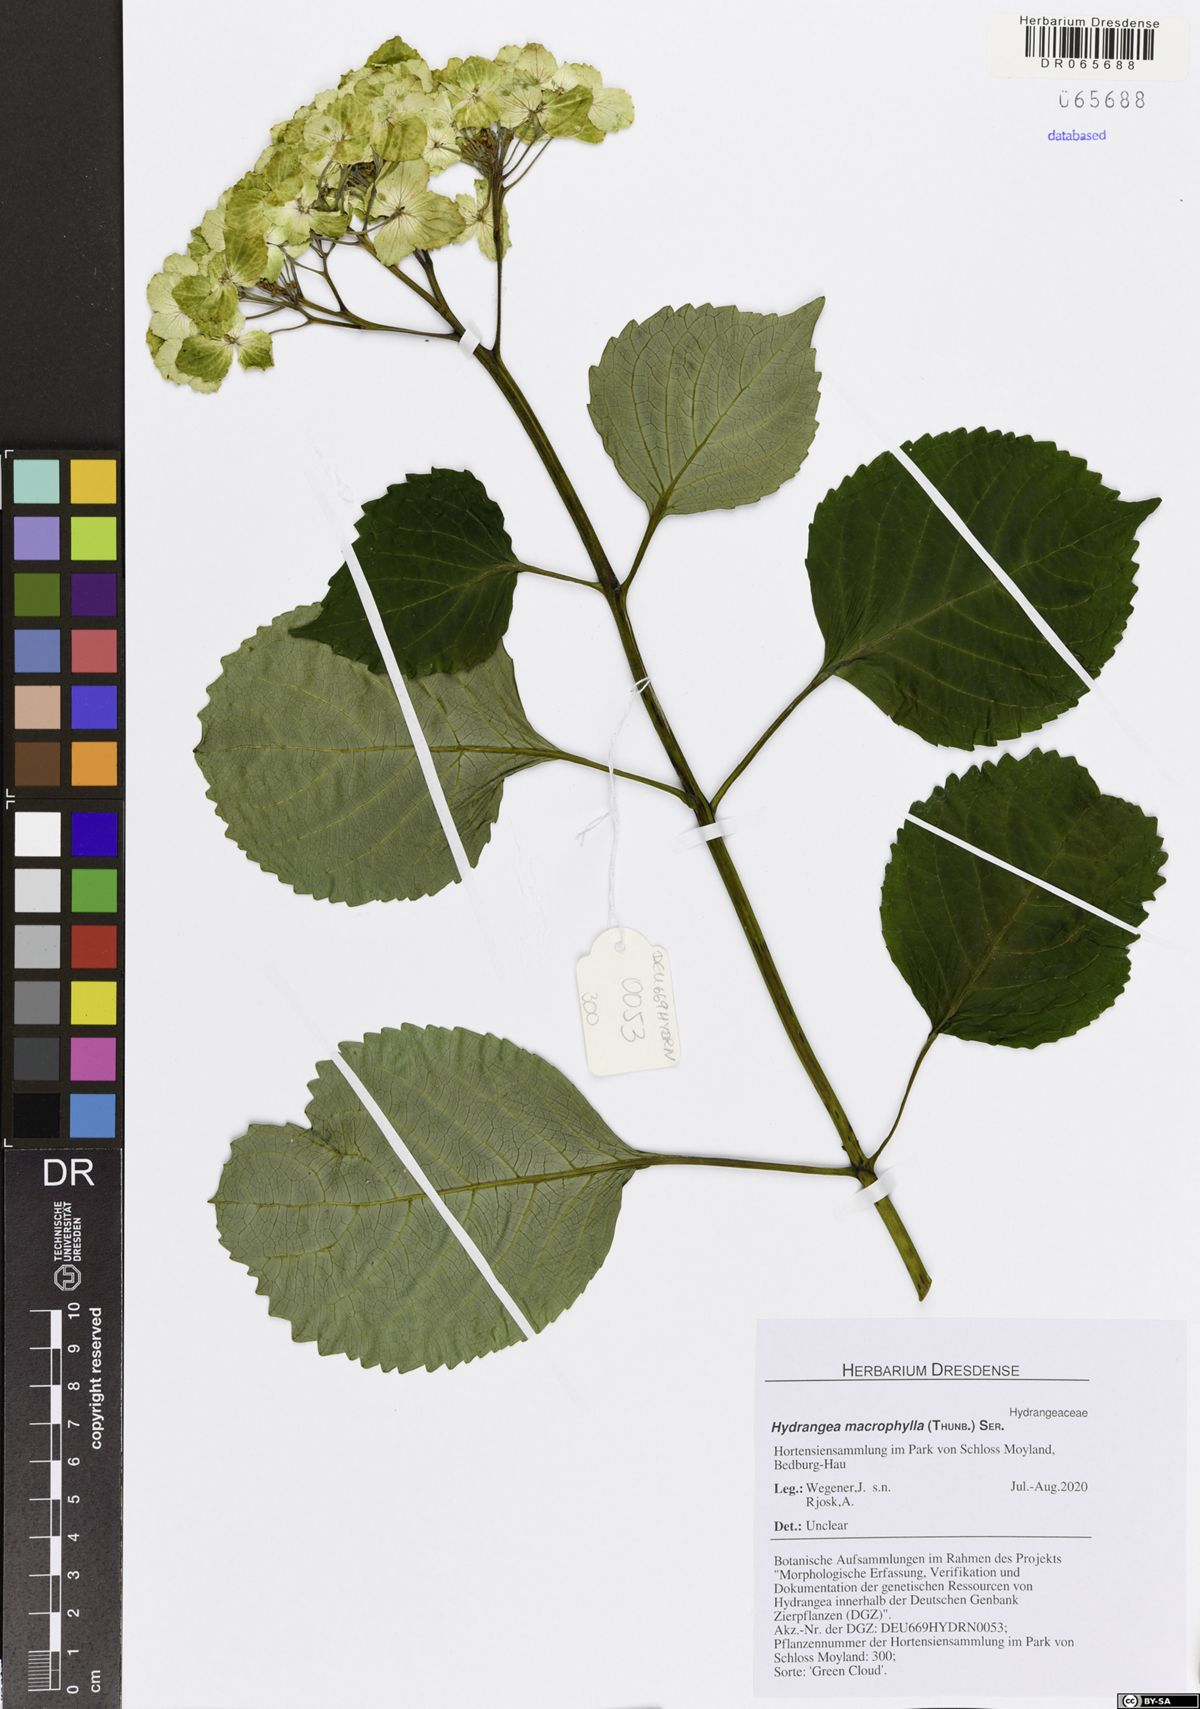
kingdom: Plantae
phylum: Tracheophyta
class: Magnoliopsida
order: Cornales
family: Hydrangeaceae
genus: Hydrangea
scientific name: Hydrangea macrophylla
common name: Hydrangea
